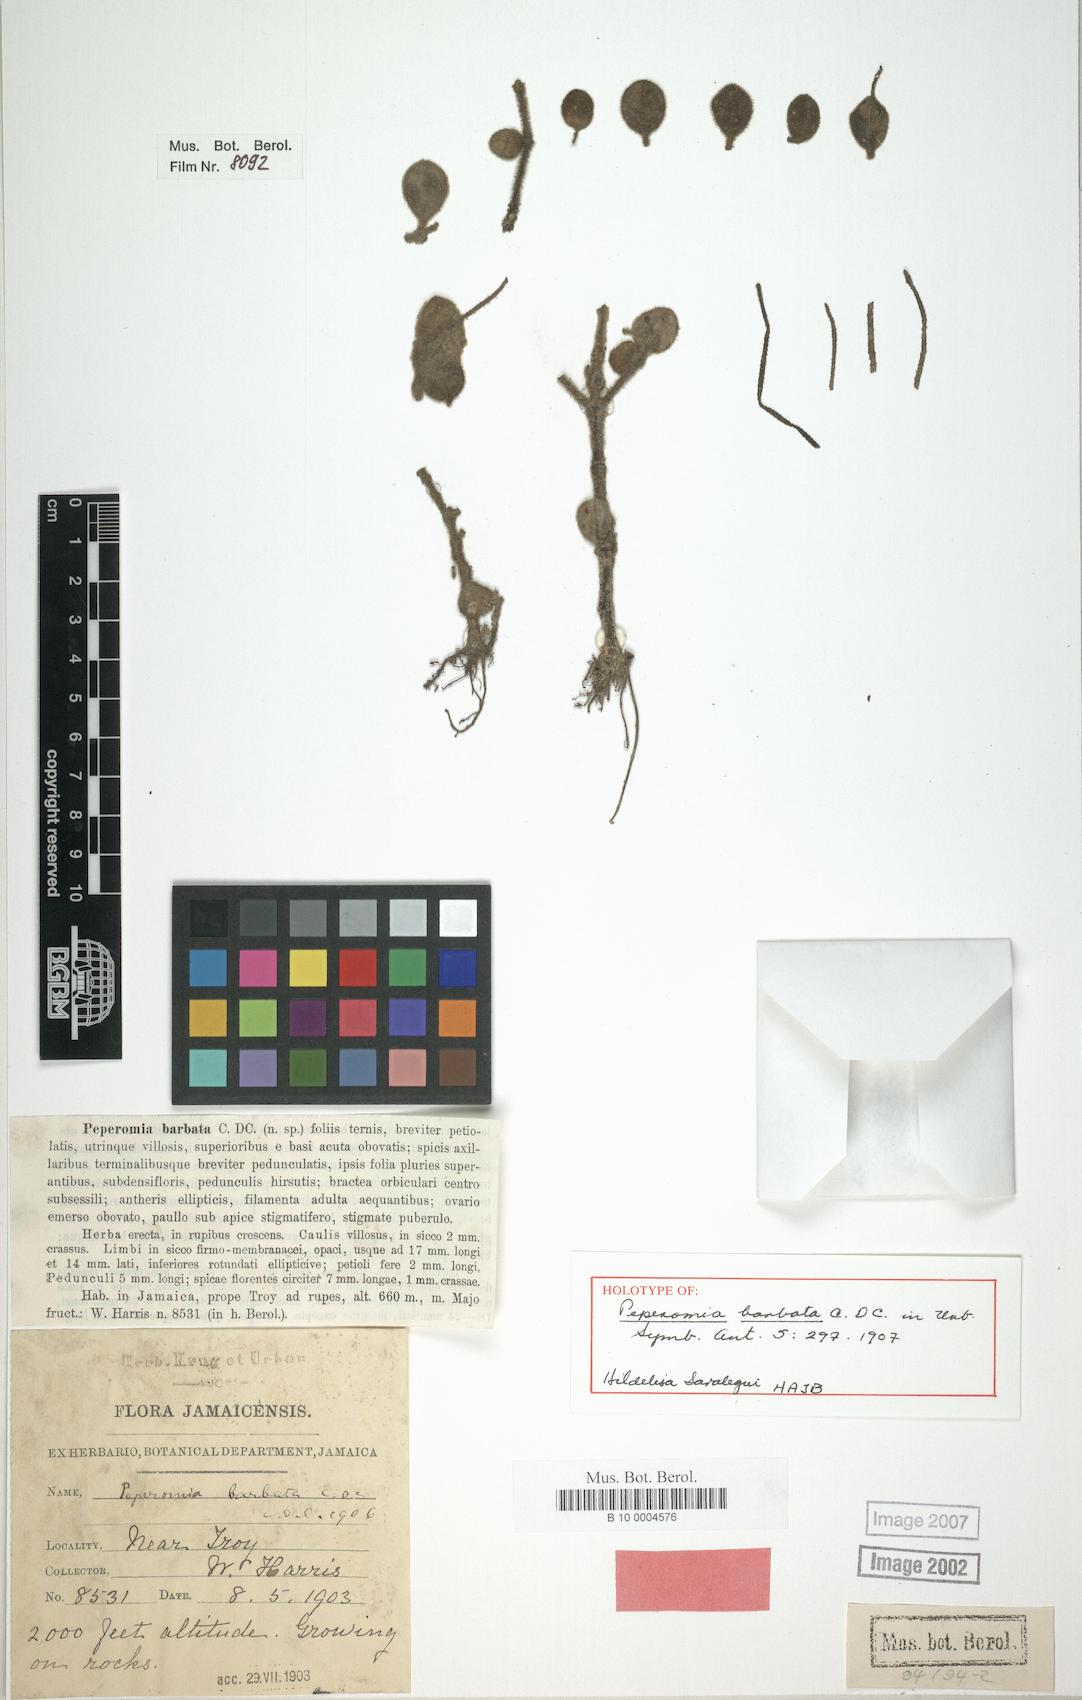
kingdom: Plantae
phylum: Tracheophyta
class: Magnoliopsida
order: Piperales
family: Piperaceae
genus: Peperomia
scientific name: Peperomia barbata
